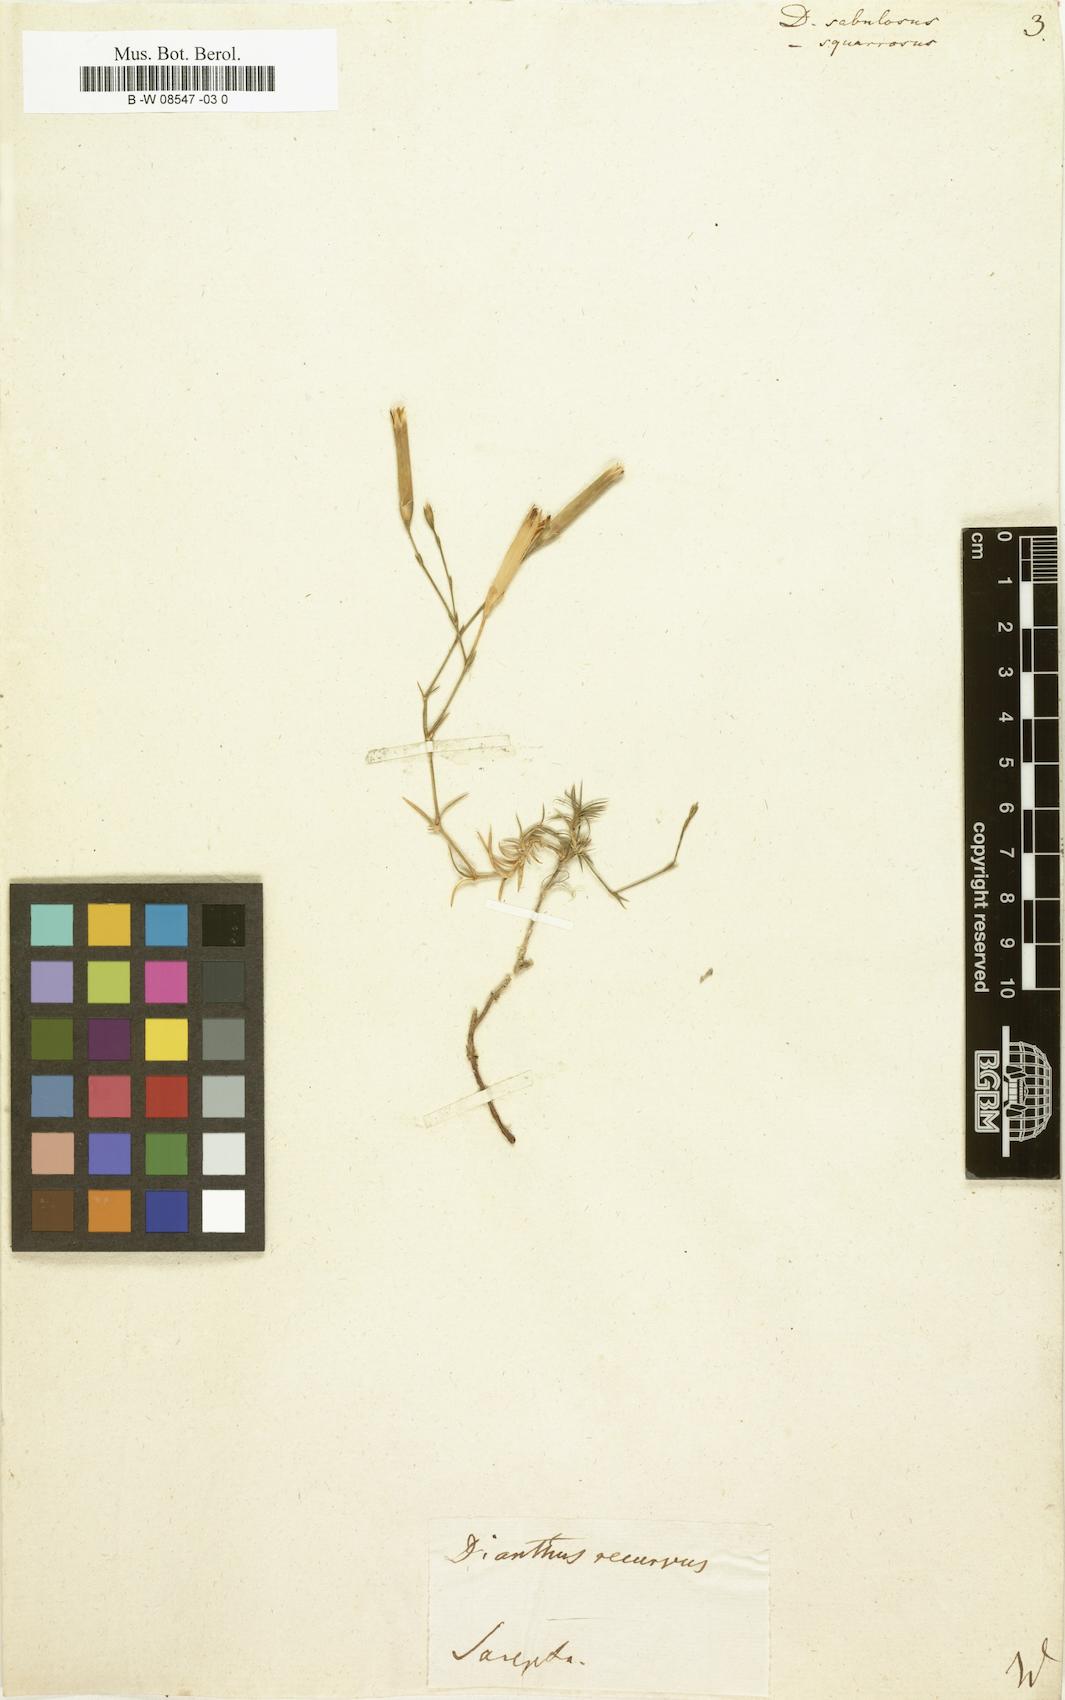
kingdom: Plantae
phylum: Tracheophyta
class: Magnoliopsida
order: Caryophyllales
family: Caryophyllaceae
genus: Dianthus
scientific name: Dianthus squarrosus
